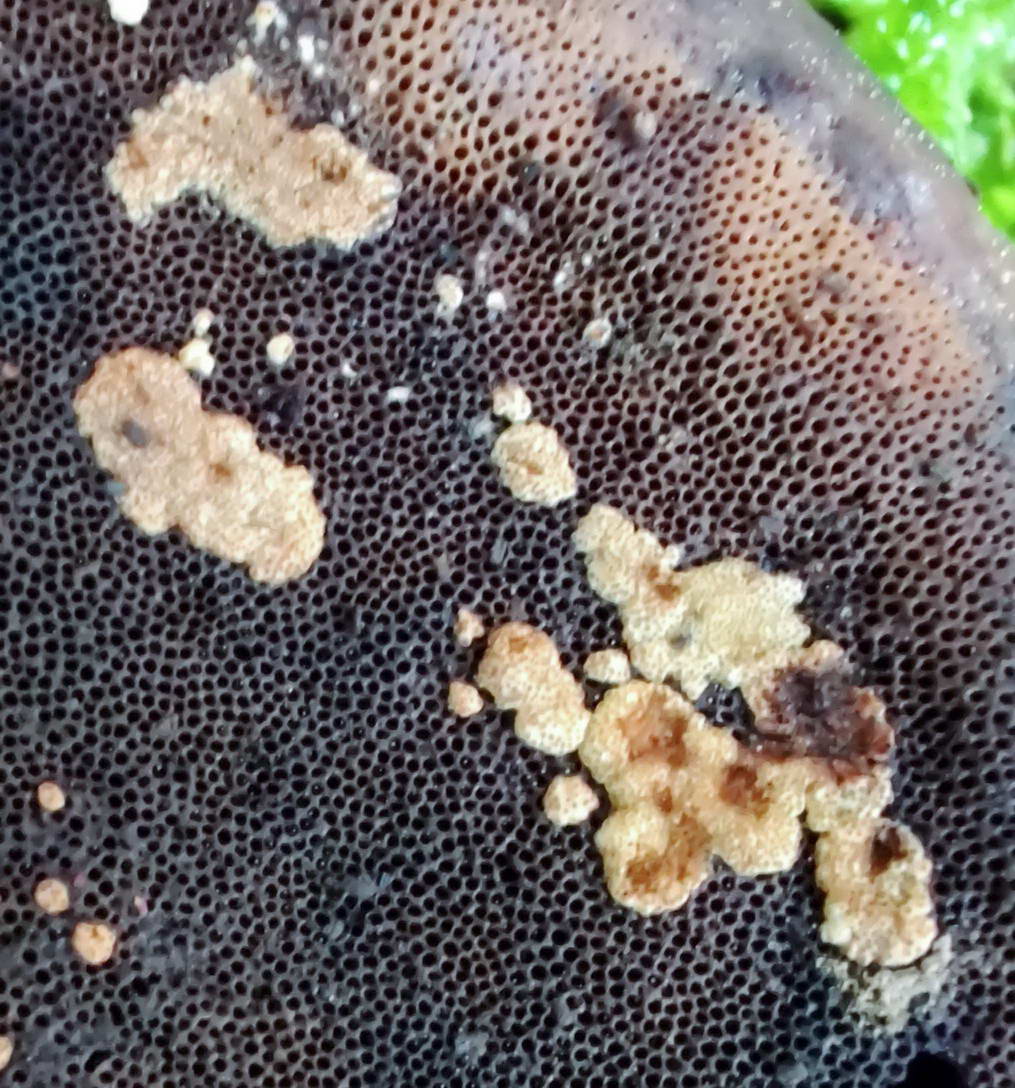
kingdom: Fungi
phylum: Ascomycota
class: Sordariomycetes
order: Hypocreales
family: Hypocreaceae
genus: Trichoderma
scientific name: Trichoderma pulvinatum
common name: snyltende kødkerne
